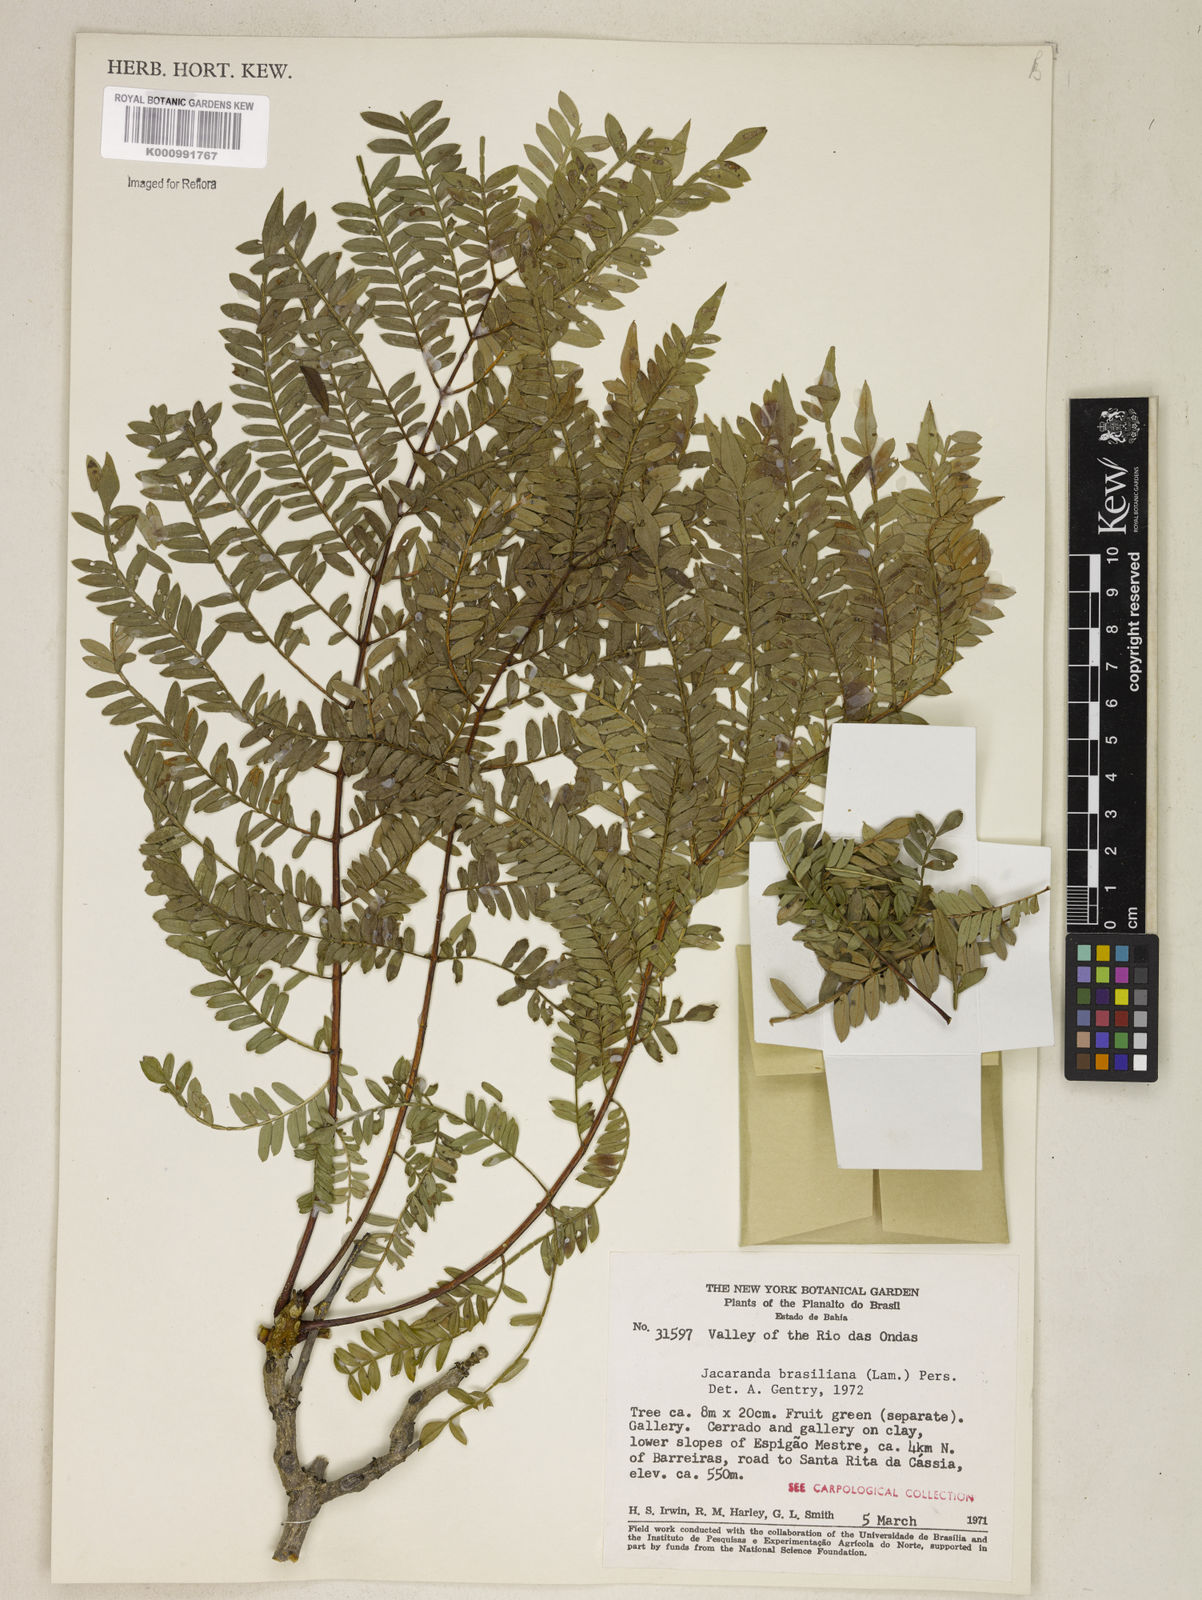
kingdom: Plantae
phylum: Tracheophyta
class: Magnoliopsida
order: Lamiales
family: Bignoniaceae
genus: Jacaranda
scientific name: Jacaranda brasiliana
